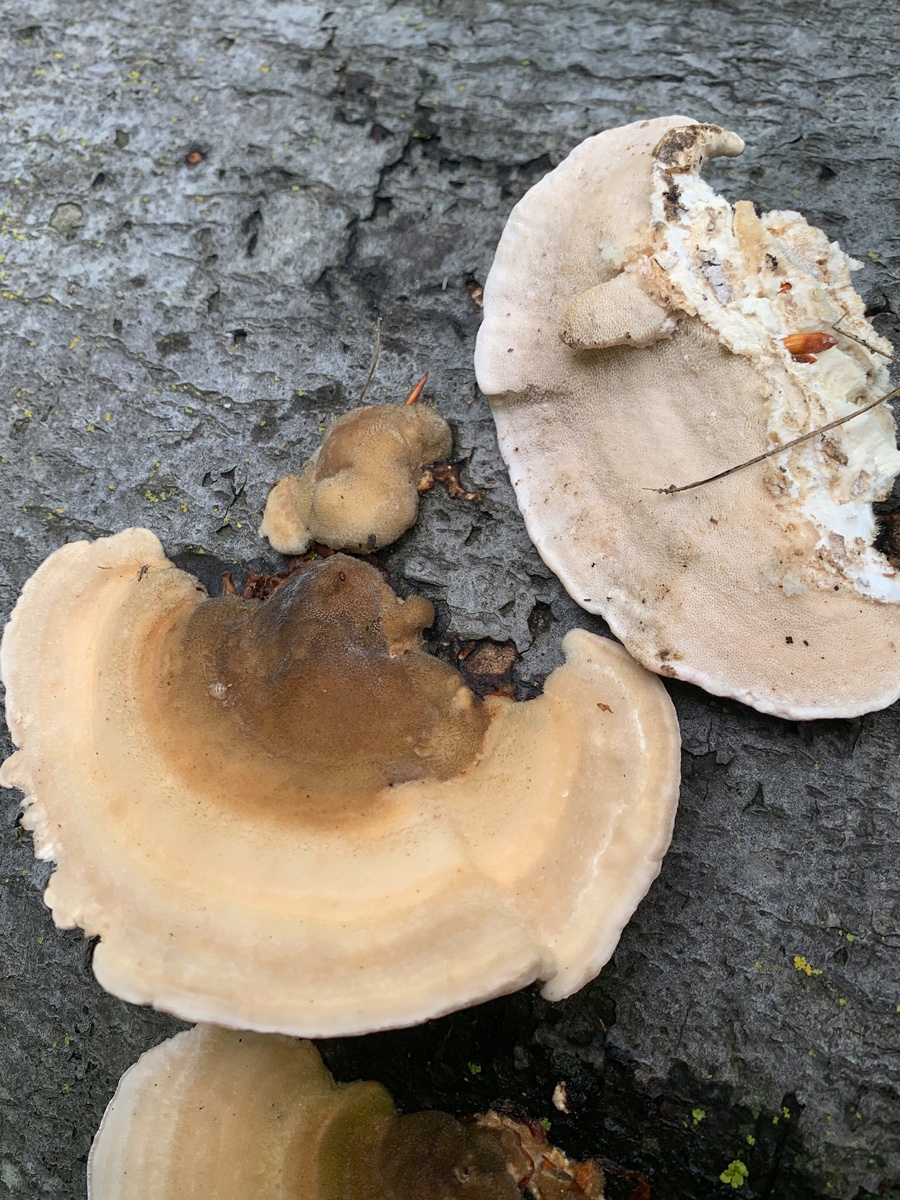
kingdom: Fungi
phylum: Basidiomycota
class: Agaricomycetes
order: Polyporales
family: Polyporaceae
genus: Trametes
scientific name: Trametes hirsuta
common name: håret læderporesvamp
